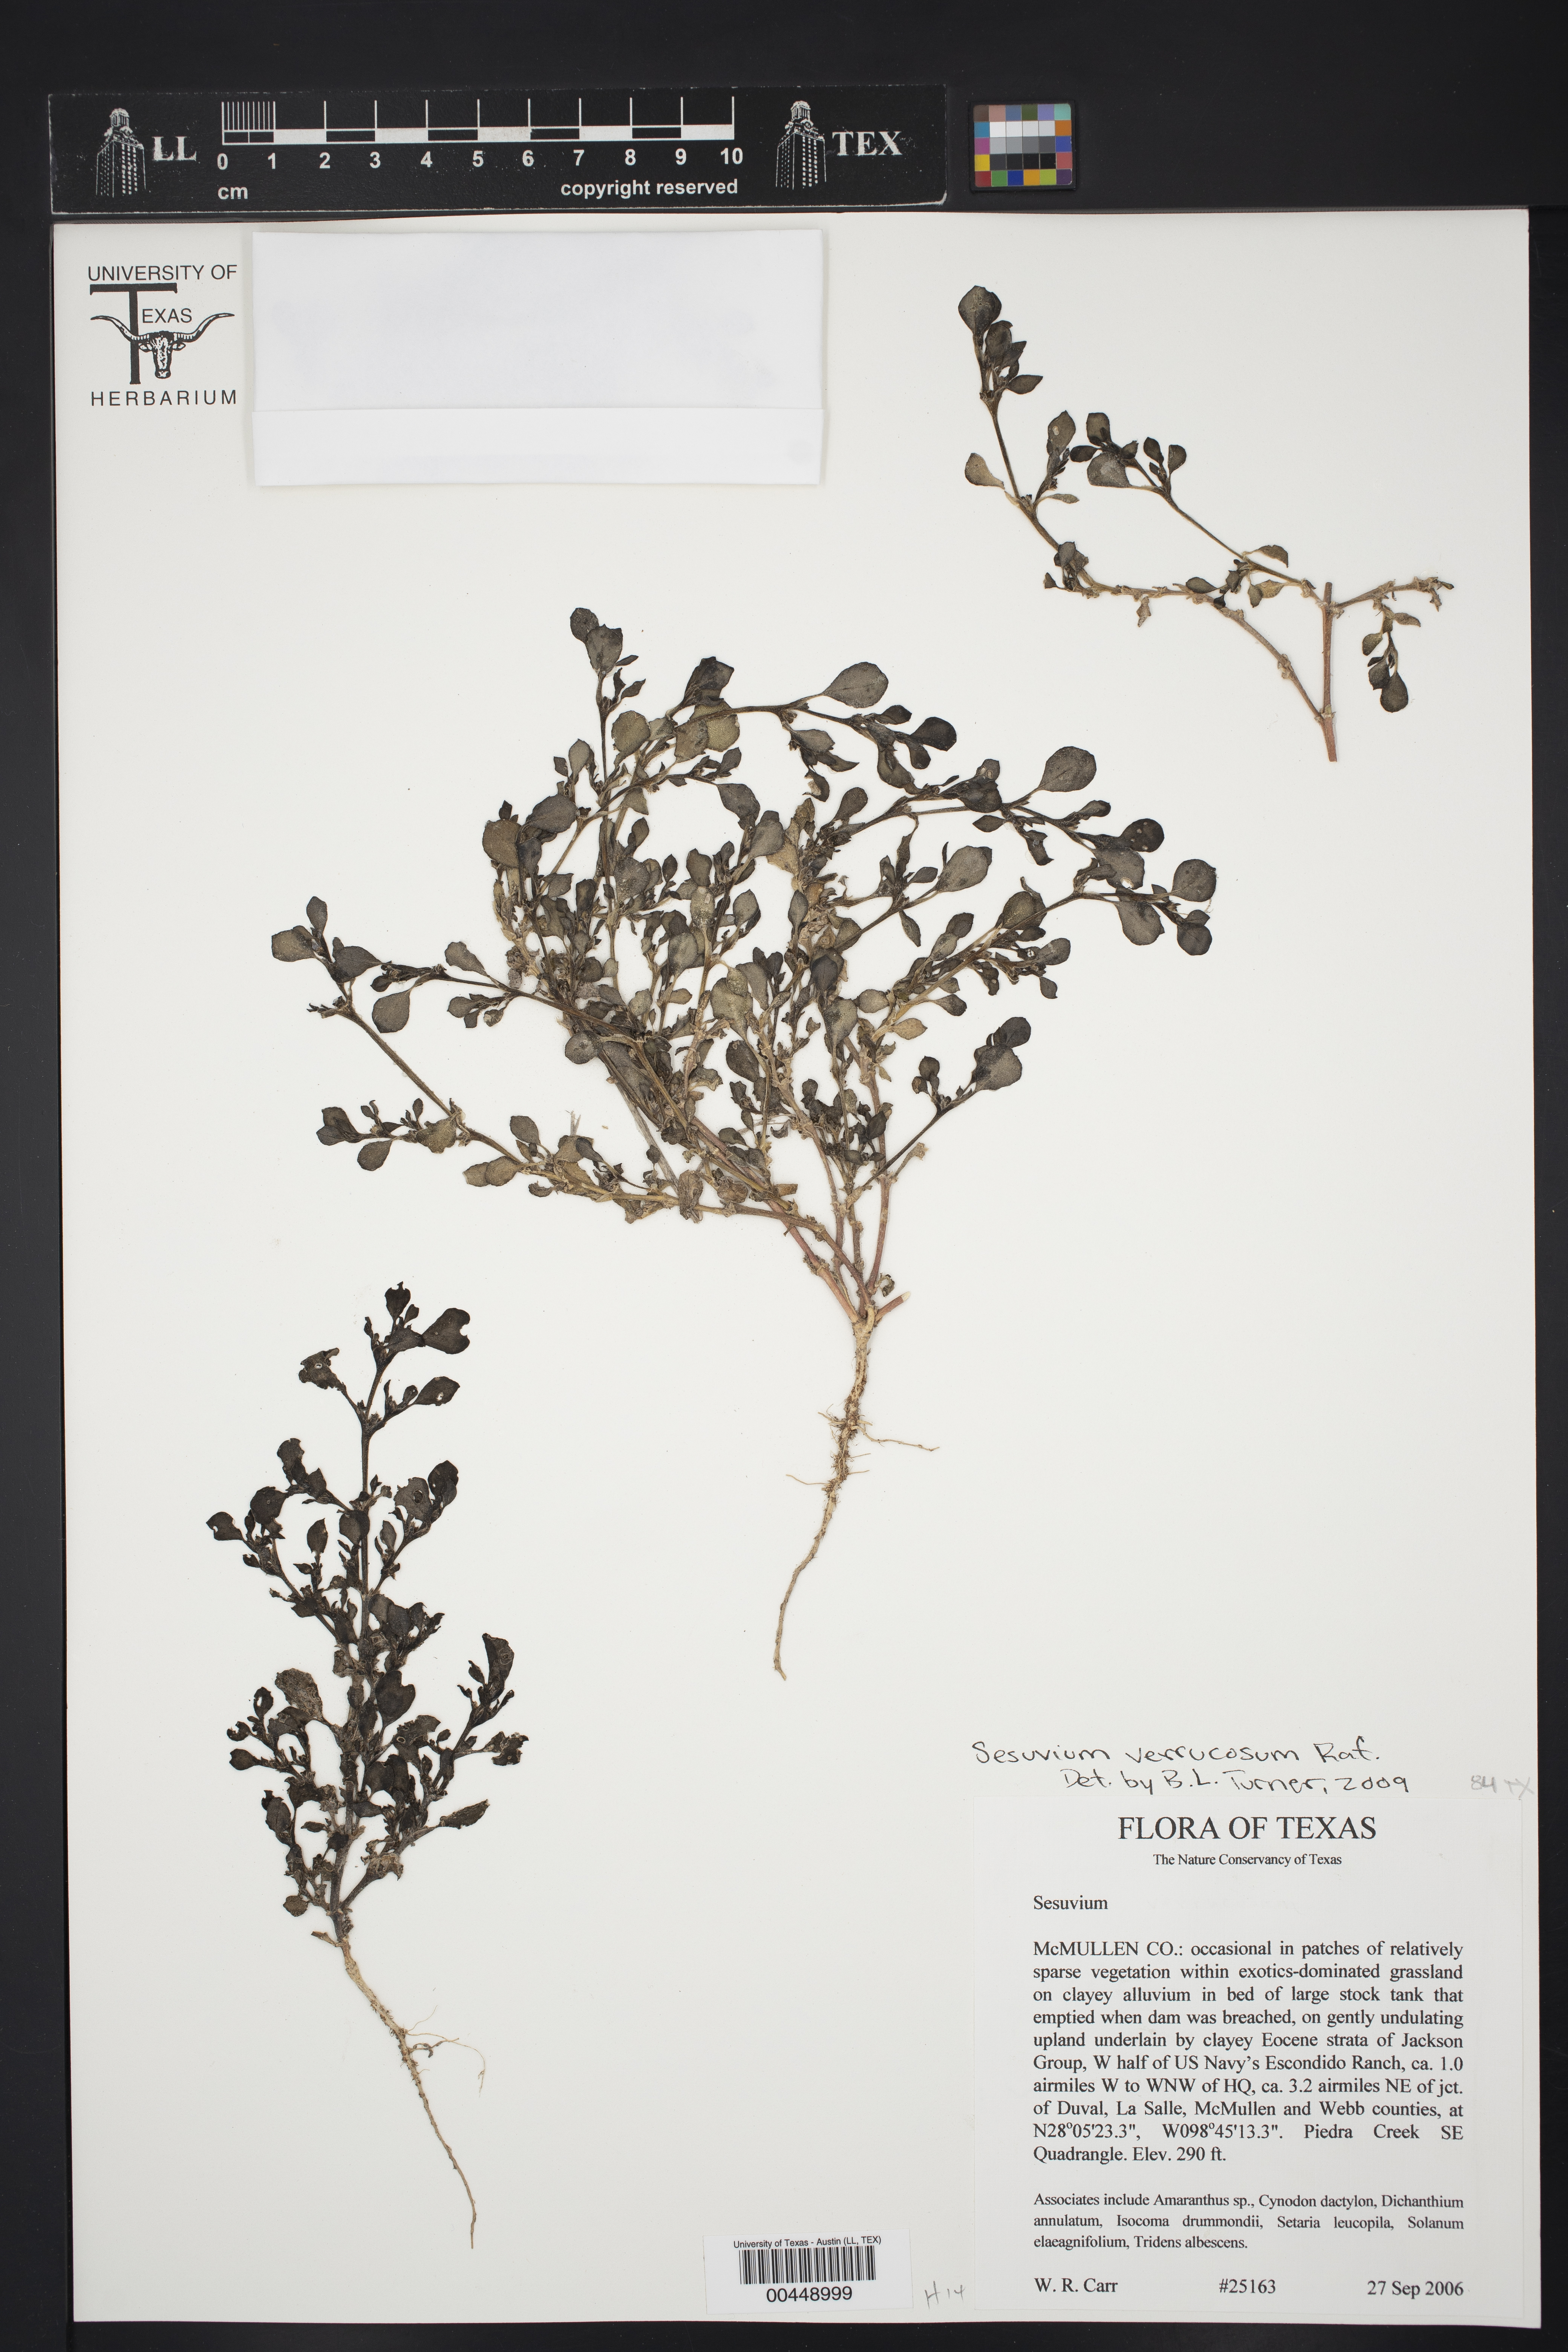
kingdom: Plantae
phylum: Tracheophyta
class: Magnoliopsida
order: Caryophyllales
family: Aizoaceae
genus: Sesuvium
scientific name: Sesuvium revolutifolium
